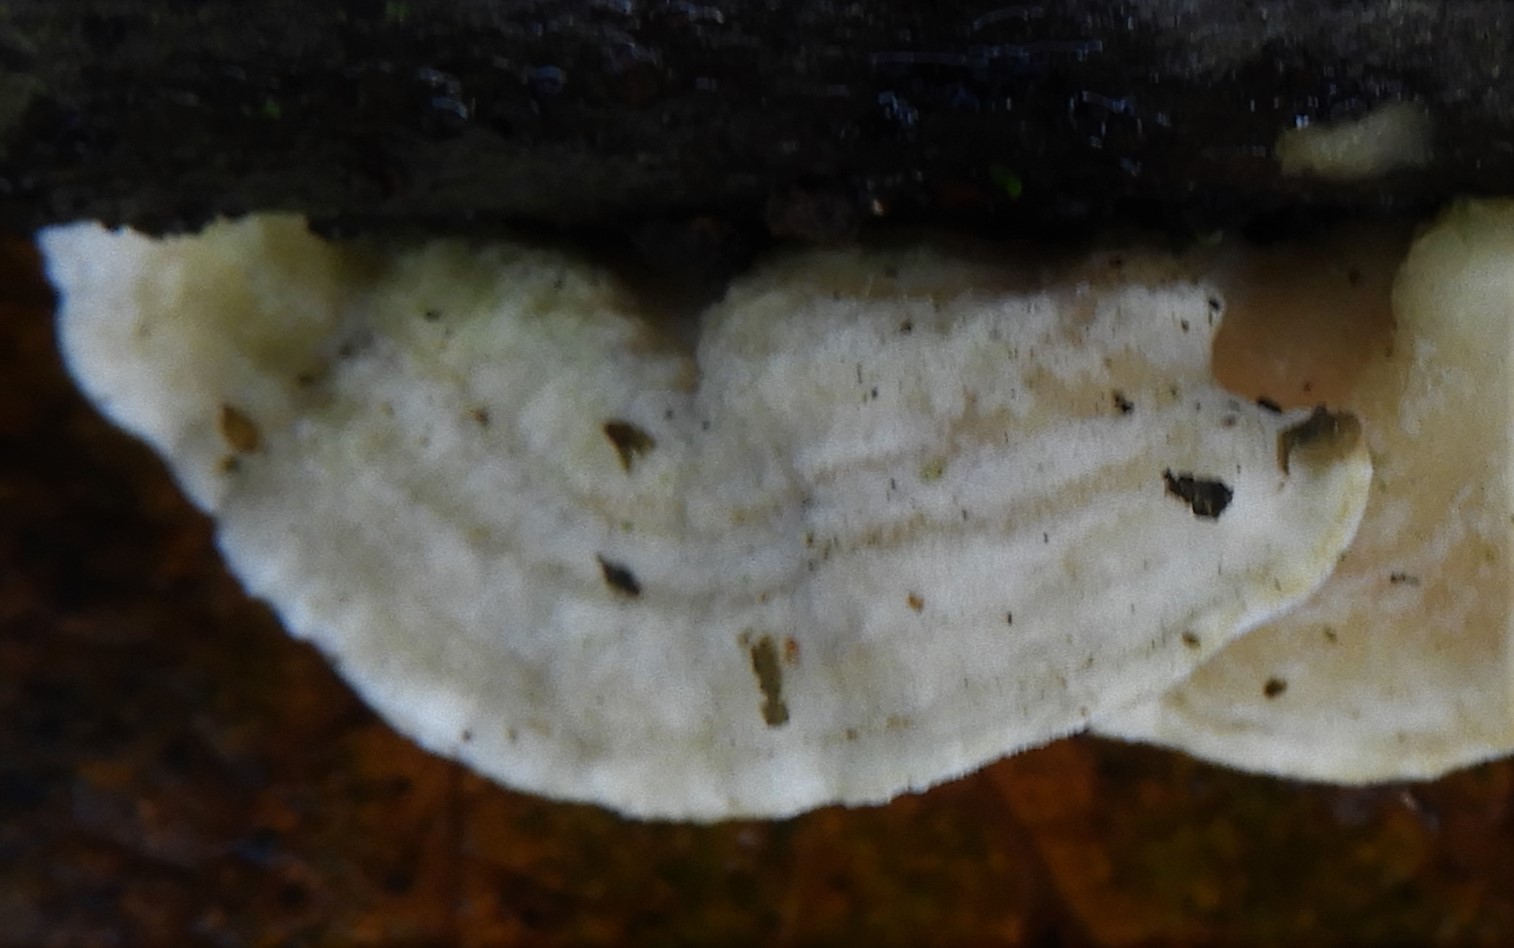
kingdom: Fungi
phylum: Basidiomycota
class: Agaricomycetes
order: Corticiales
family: Corticiaceae
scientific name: Corticiaceae
